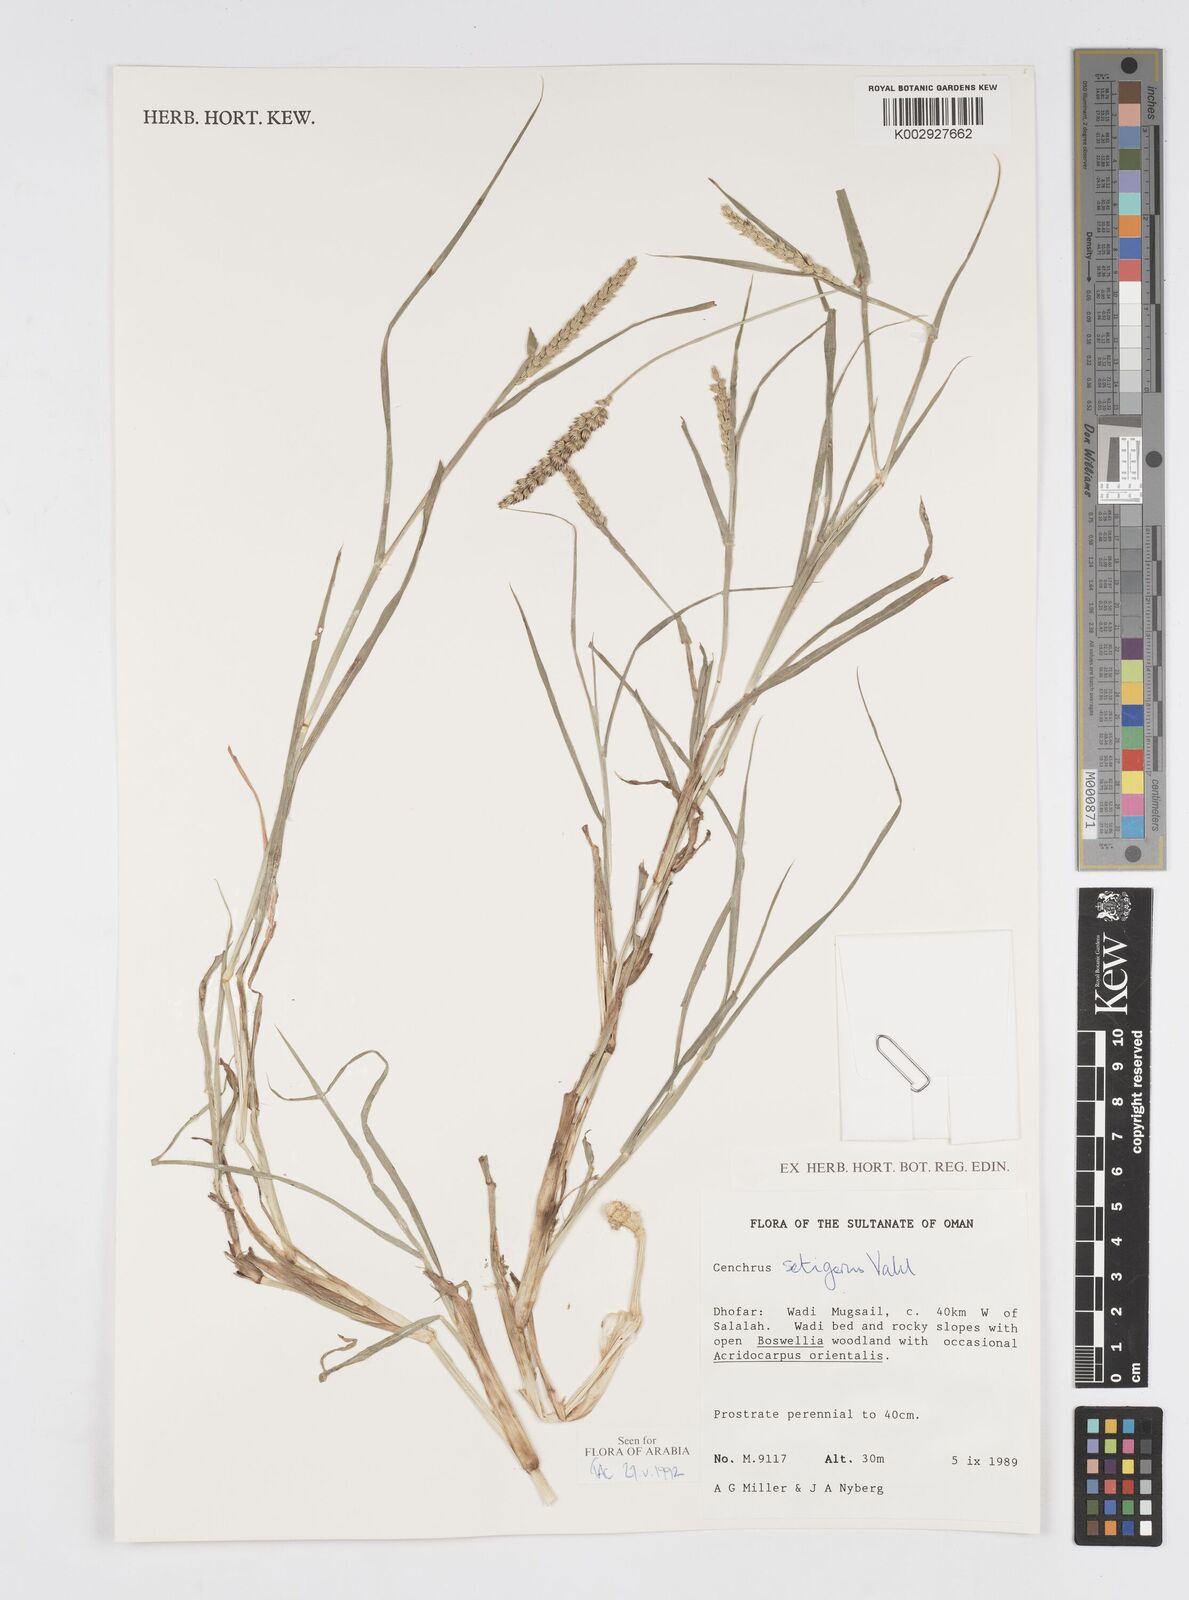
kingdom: Plantae
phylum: Tracheophyta
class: Liliopsida
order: Poales
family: Poaceae
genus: Cenchrus
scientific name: Cenchrus setigerus
